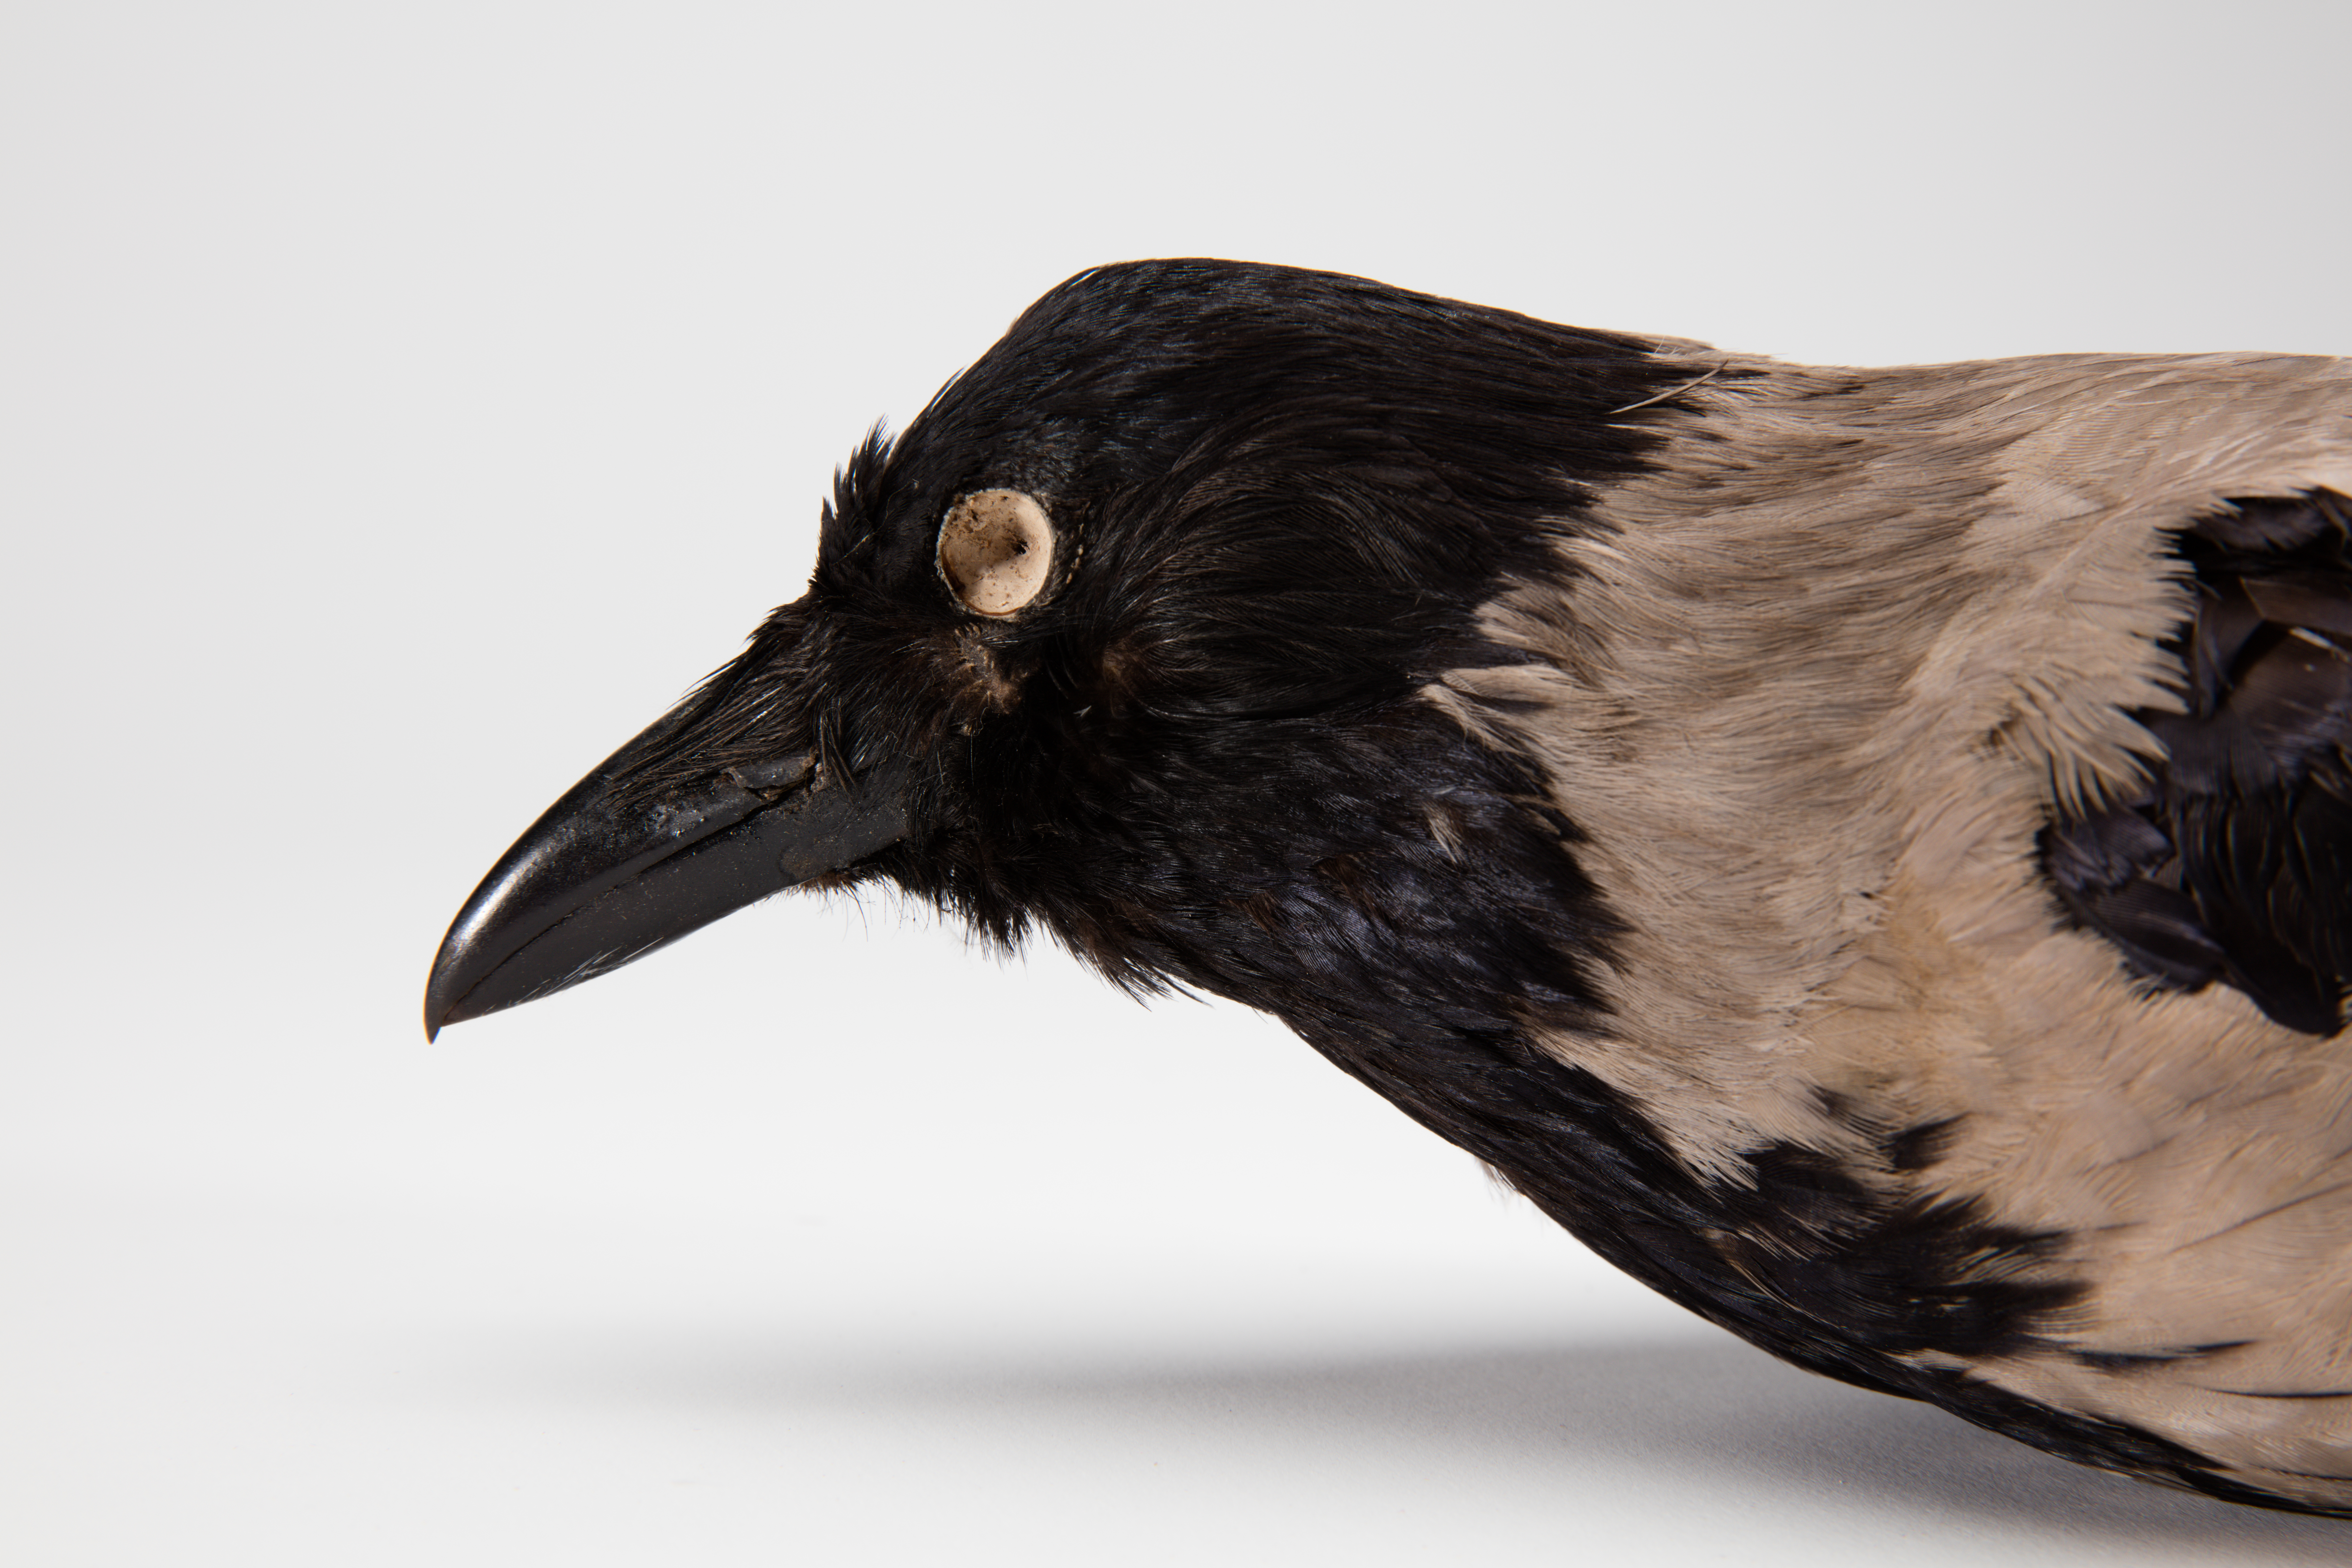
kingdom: Animalia
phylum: Chordata
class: Aves
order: Passeriformes
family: Corvidae
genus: Corvus
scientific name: Corvus cornix
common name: Hooded crow
